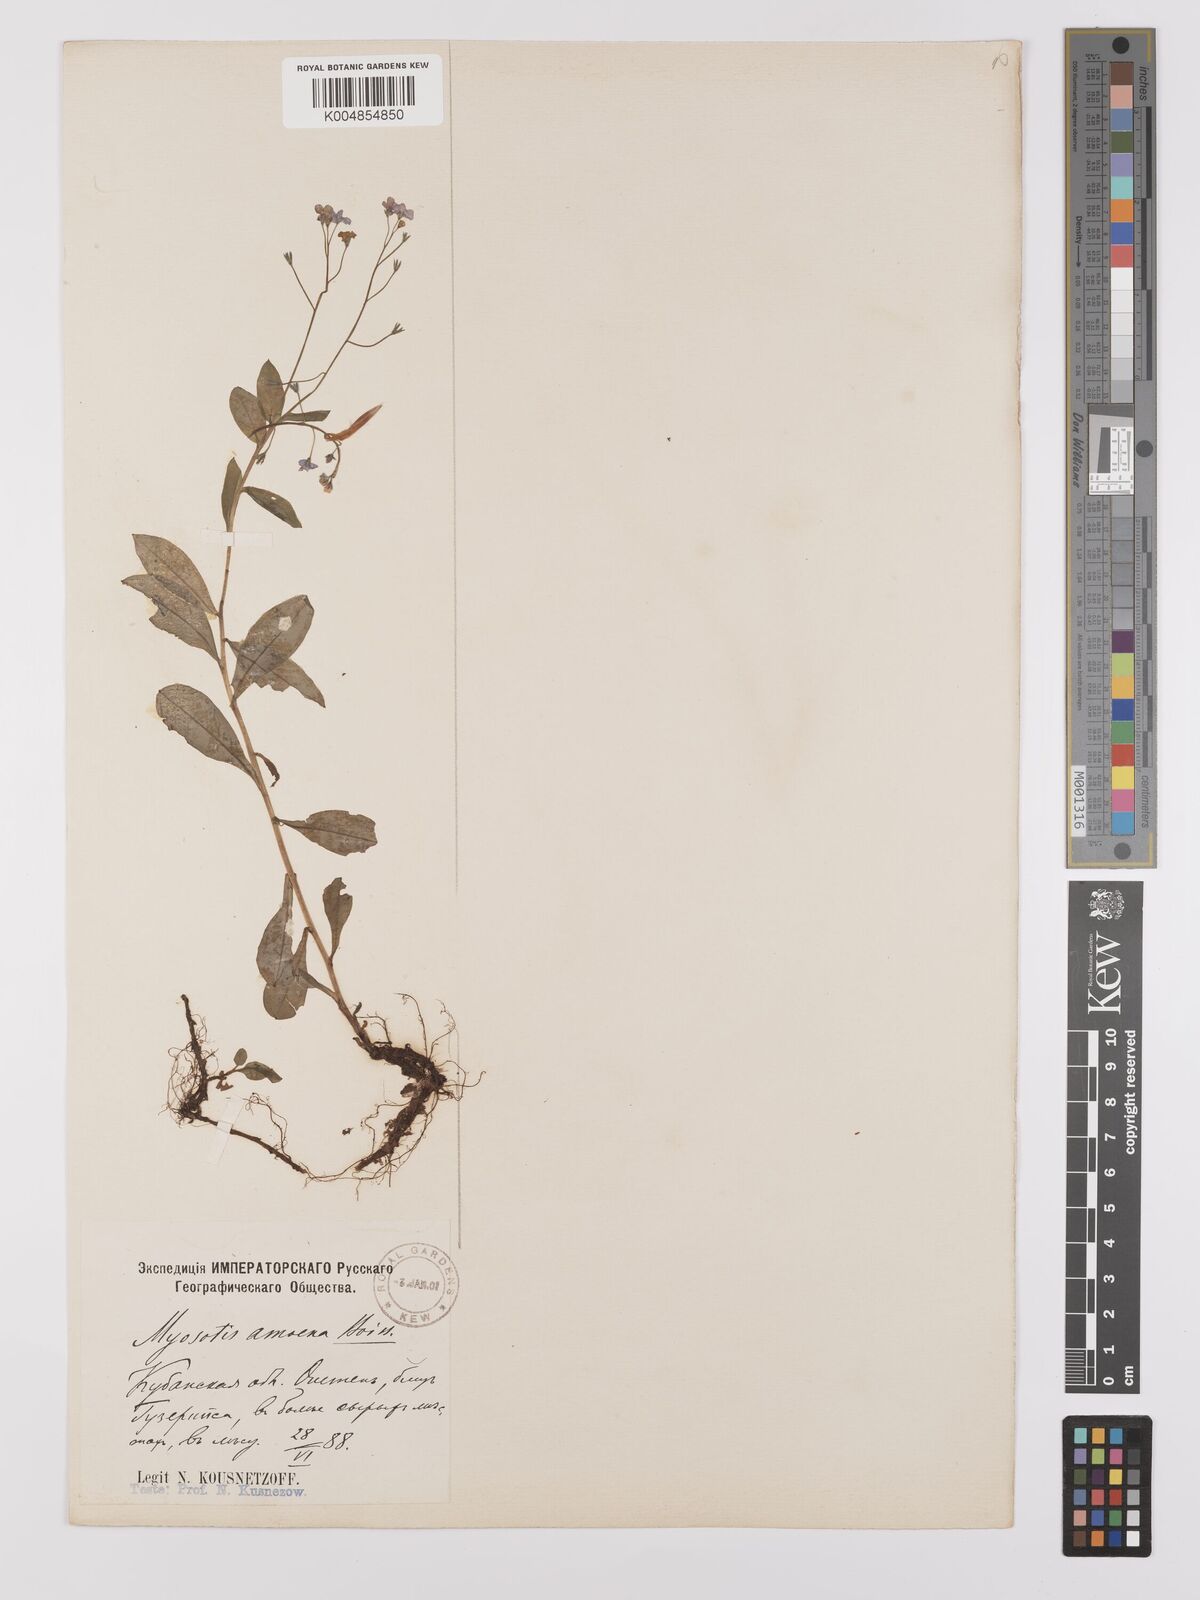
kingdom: Plantae
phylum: Tracheophyta
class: Magnoliopsida
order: Boraginales
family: Boraginaceae
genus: Myosotis
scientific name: Myosotis
